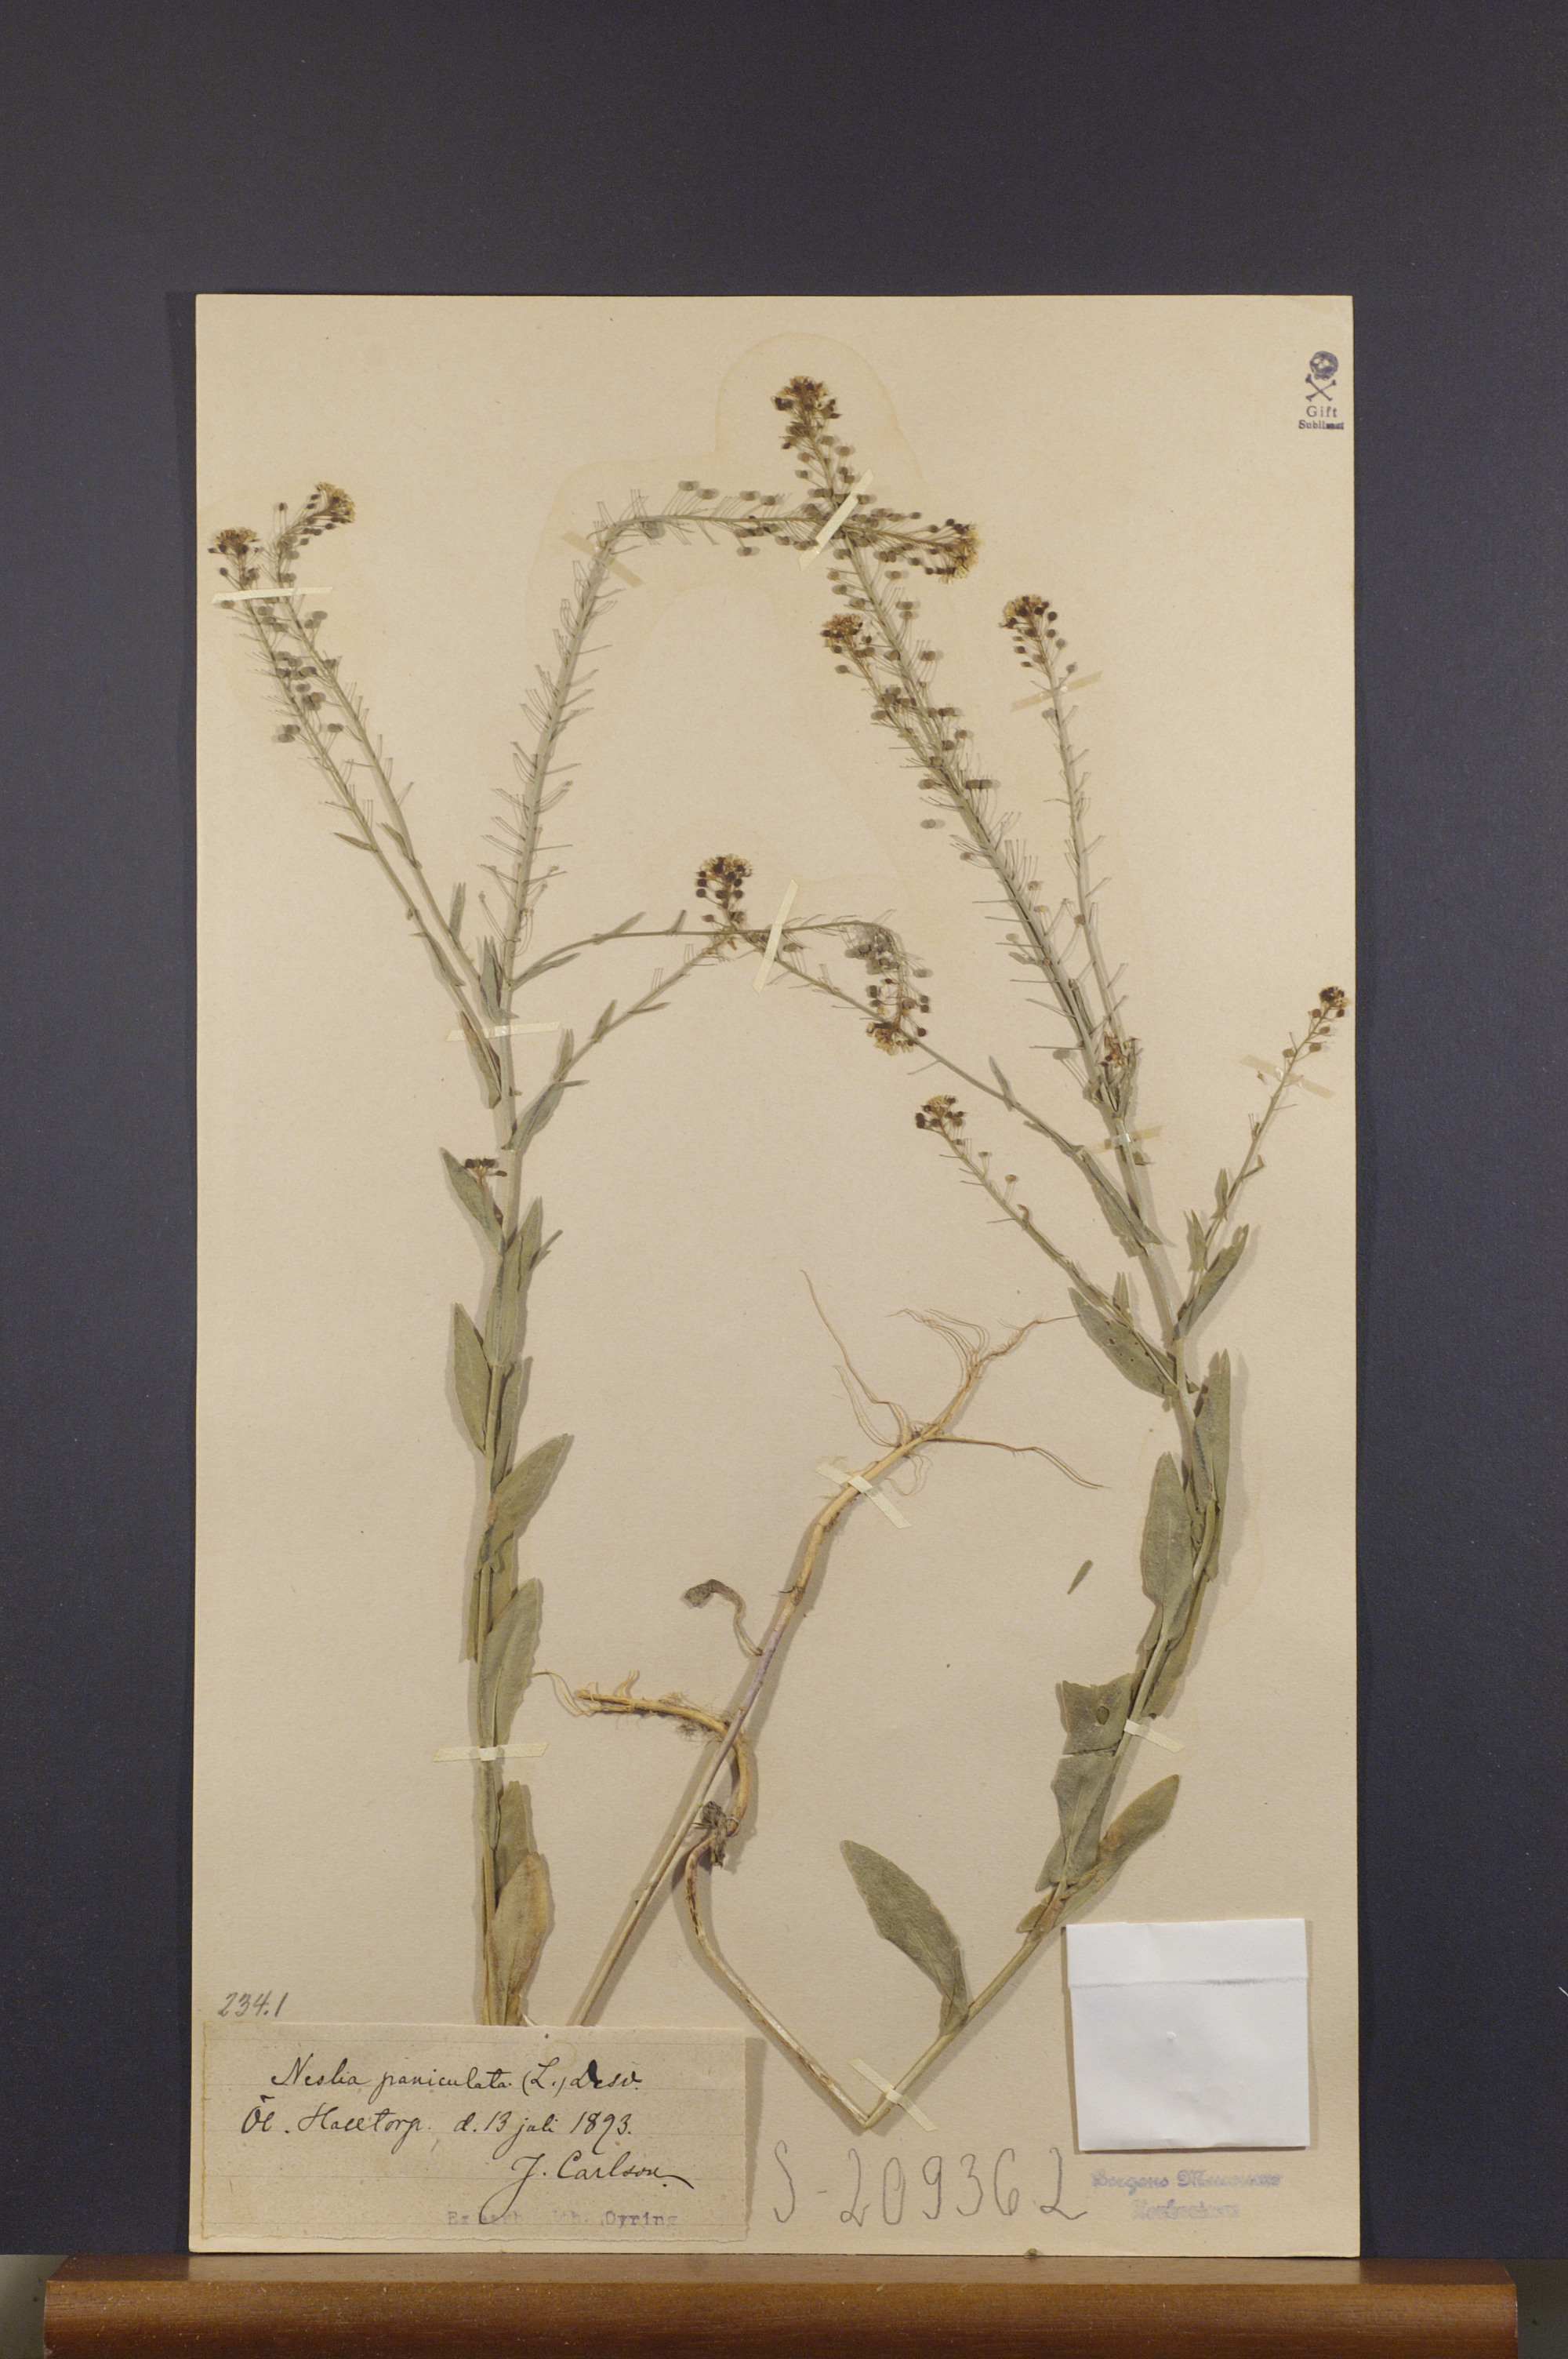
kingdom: Plantae
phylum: Tracheophyta
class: Magnoliopsida
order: Brassicales
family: Brassicaceae
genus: Neslia
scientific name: Neslia paniculata
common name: Ball mustard
